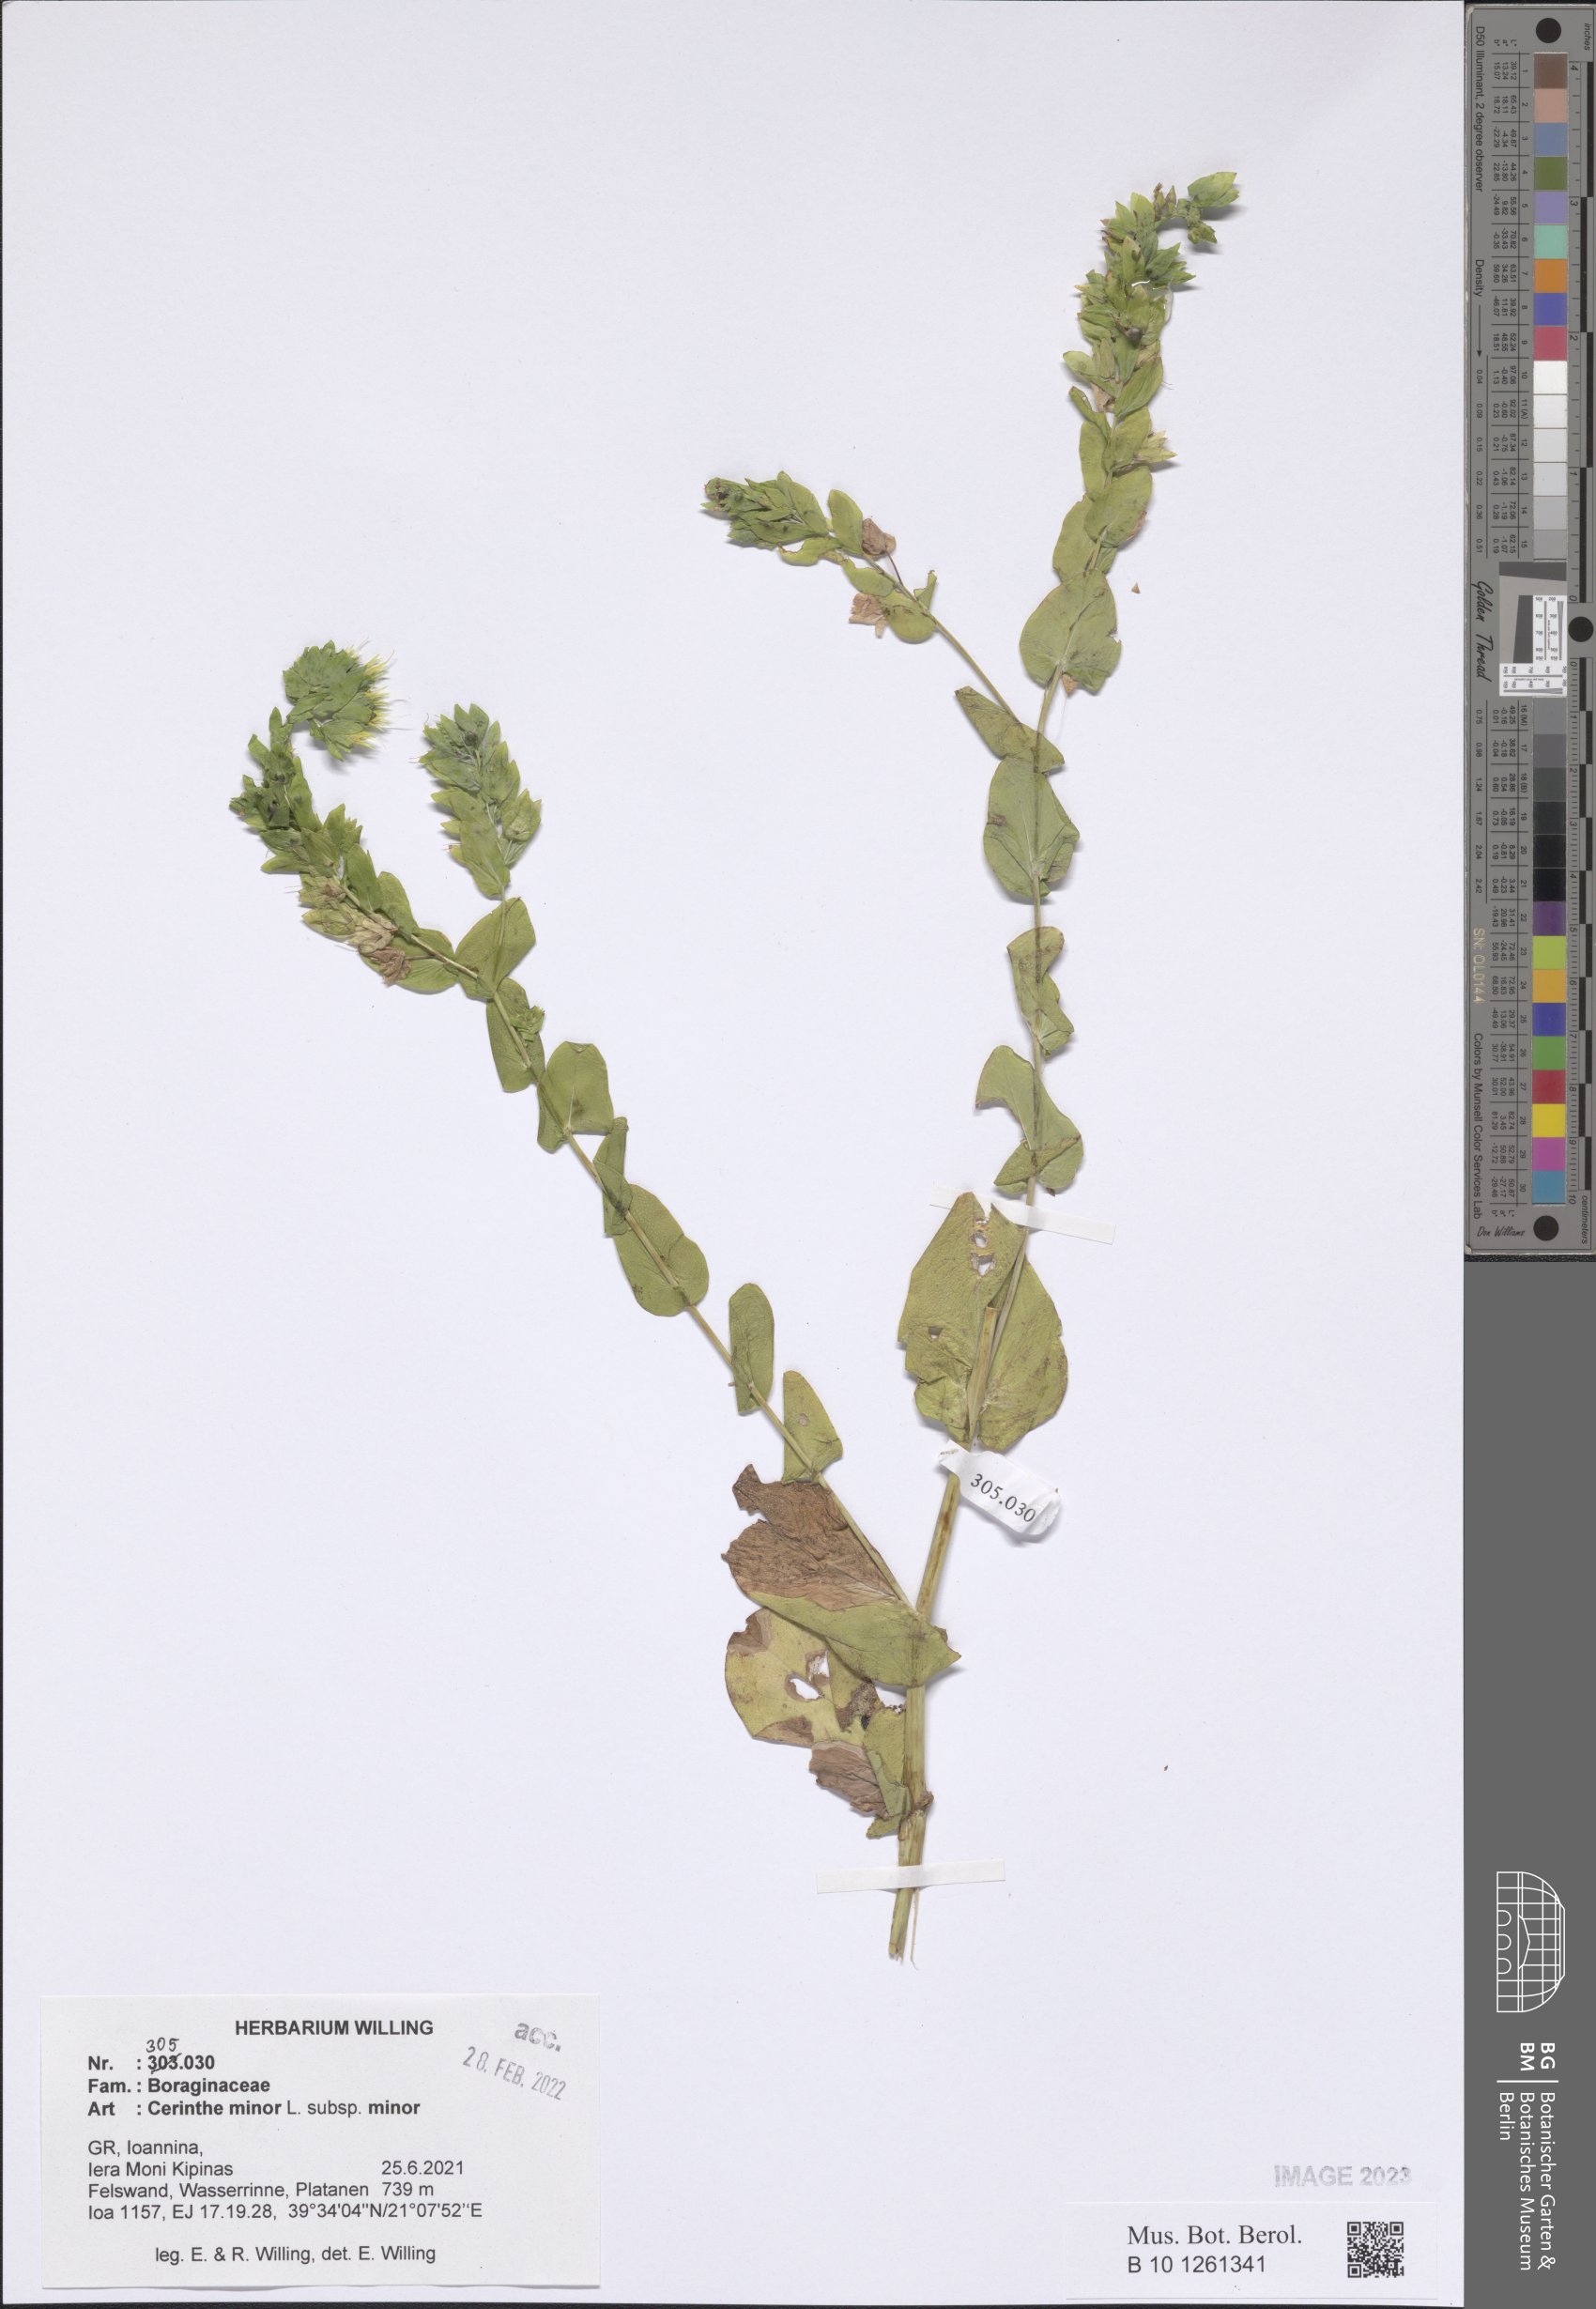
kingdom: Plantae
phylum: Tracheophyta
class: Magnoliopsida
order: Boraginales
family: Boraginaceae
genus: Cerinthe
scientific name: Cerinthe minor
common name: Lesser honeywort
